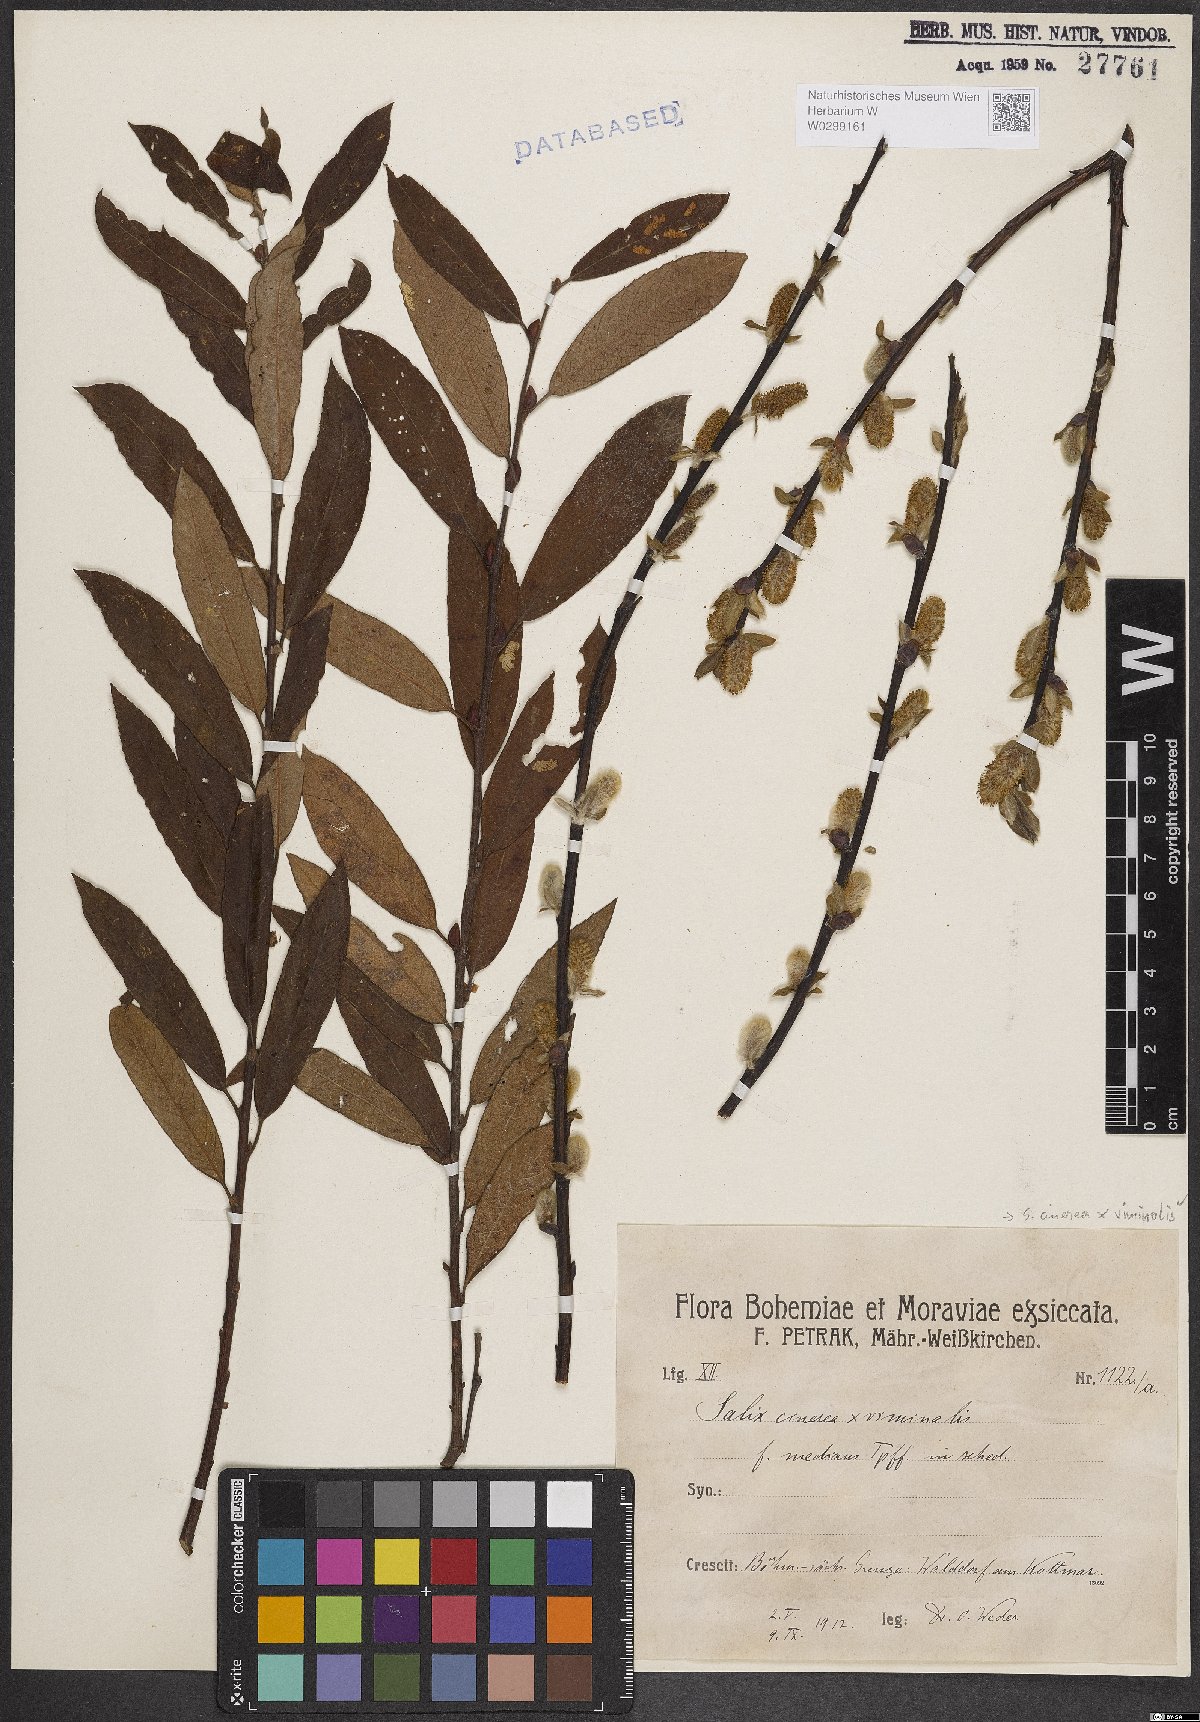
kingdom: Plantae
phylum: Tracheophyta
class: Magnoliopsida
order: Malpighiales
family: Salicaceae
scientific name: Salicaceae
